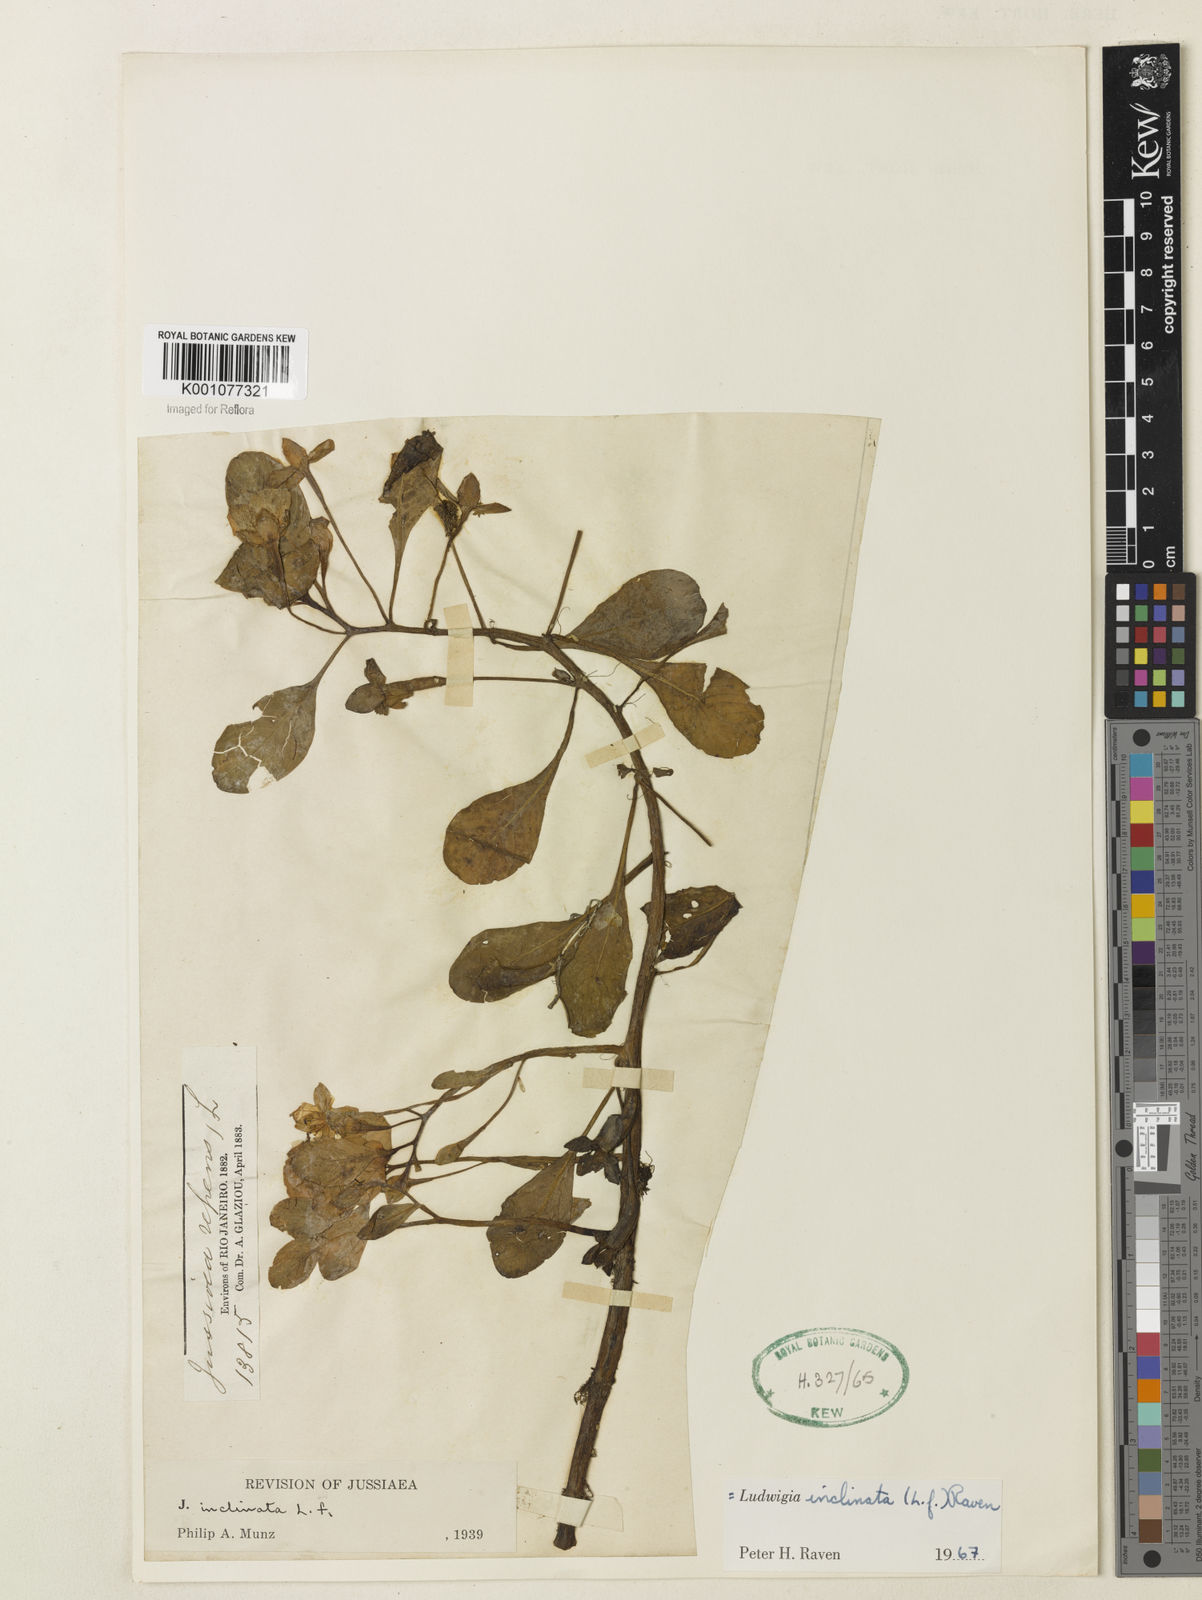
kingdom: Plantae
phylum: Tracheophyta
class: Magnoliopsida
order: Myrtales
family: Onagraceae
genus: Ludwigia
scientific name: Ludwigia
